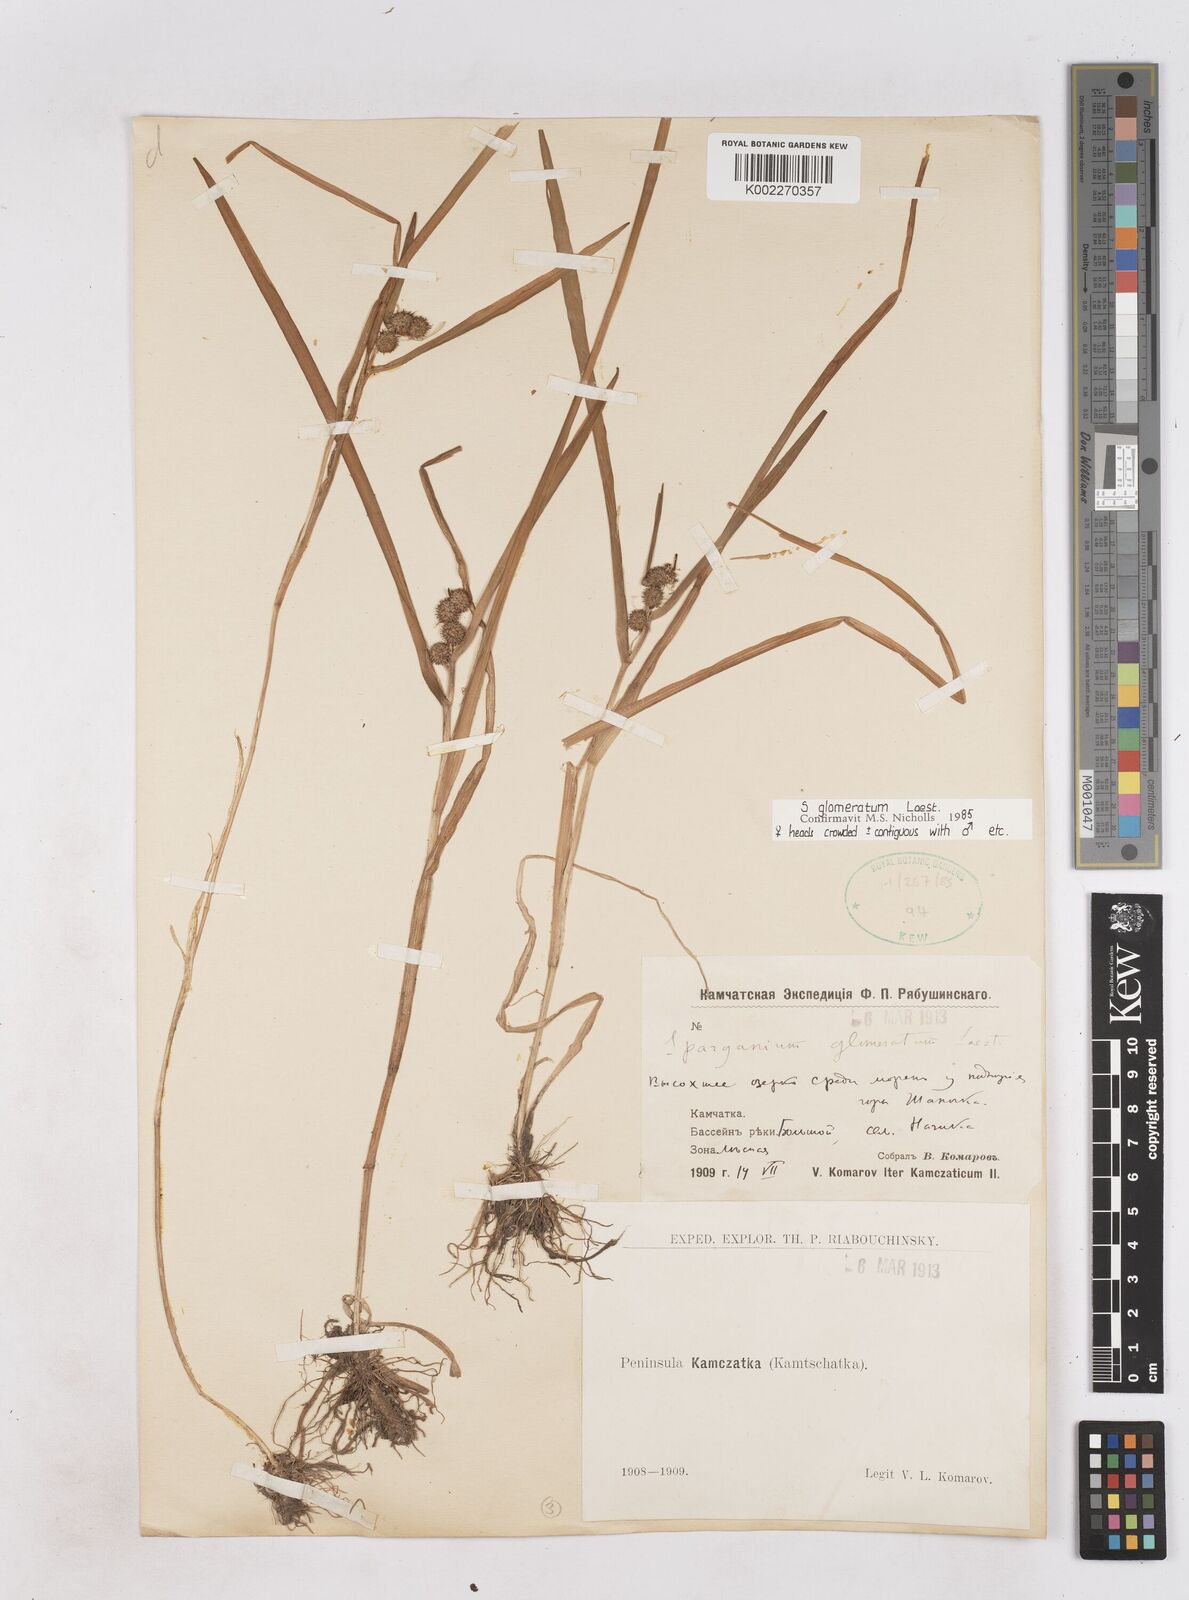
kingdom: Plantae
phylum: Tracheophyta
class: Liliopsida
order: Poales
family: Typhaceae
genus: Sparganium
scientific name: Sparganium glomeratum
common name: Clustered burreed
